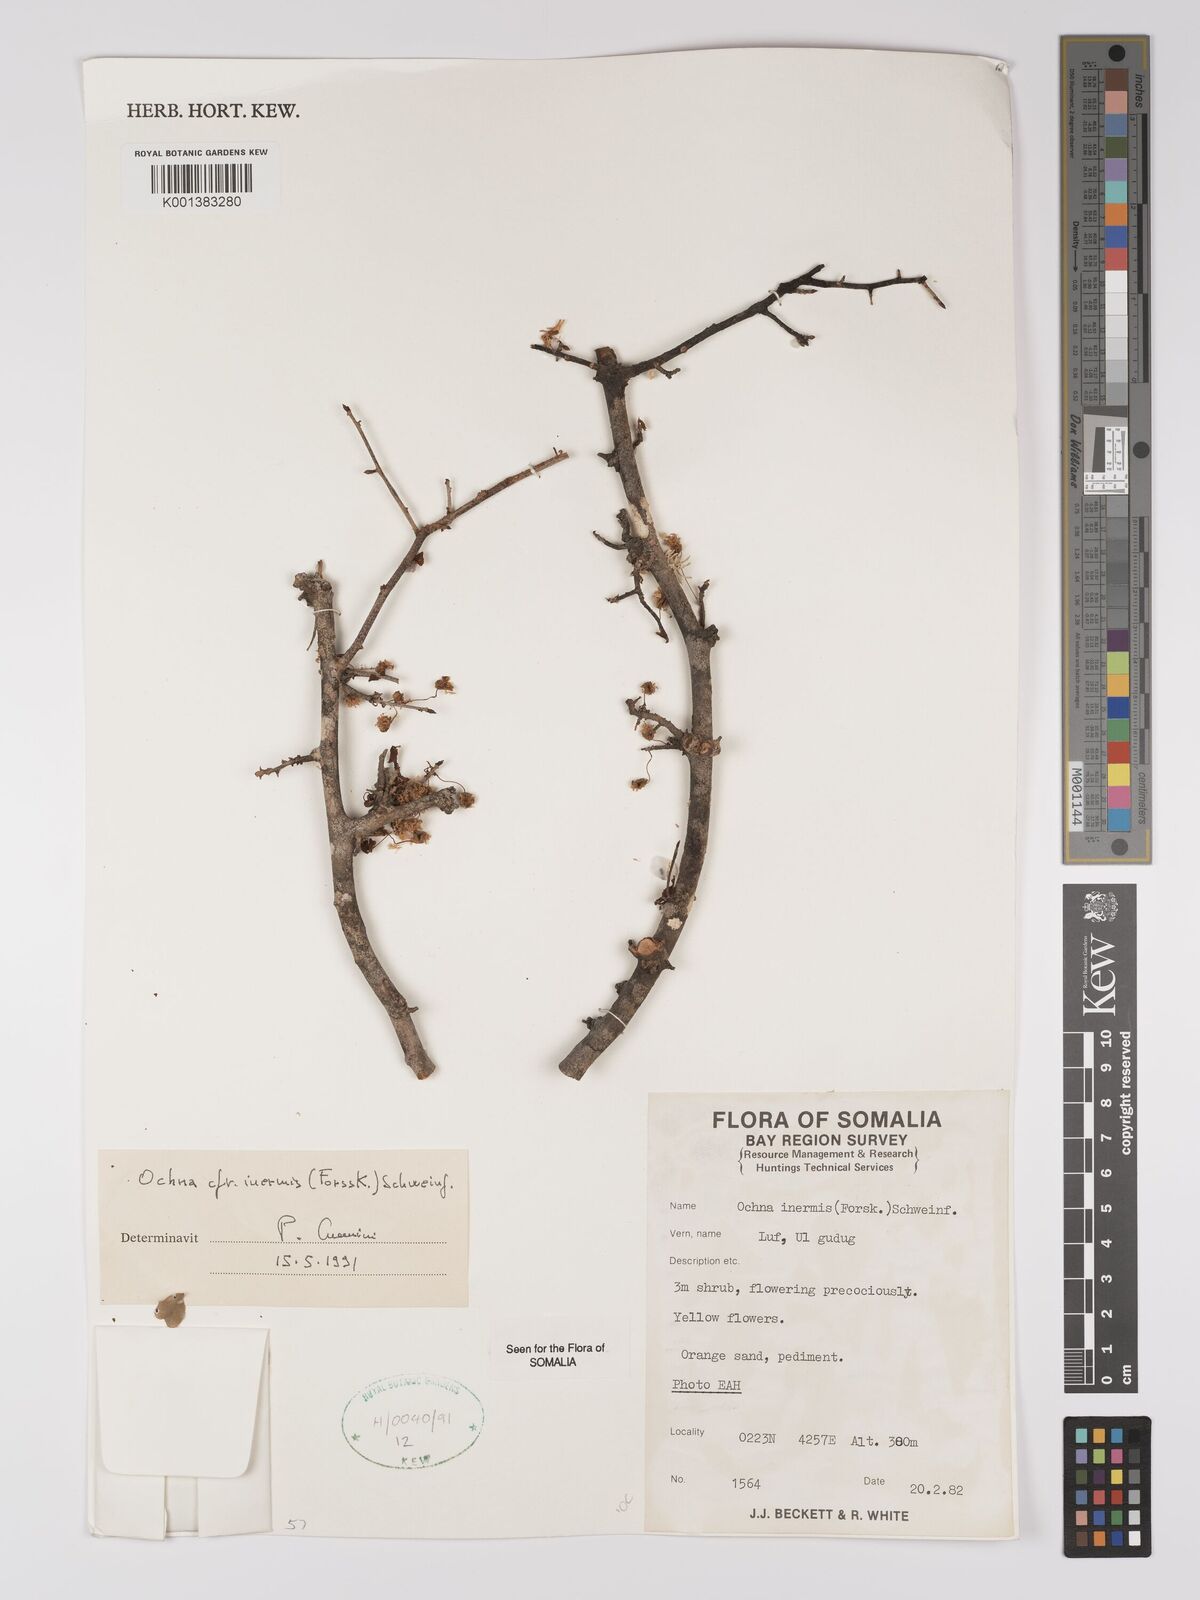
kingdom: Plantae
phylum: Tracheophyta
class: Magnoliopsida
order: Malpighiales
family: Ochnaceae
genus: Ochna
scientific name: Ochna inermis
